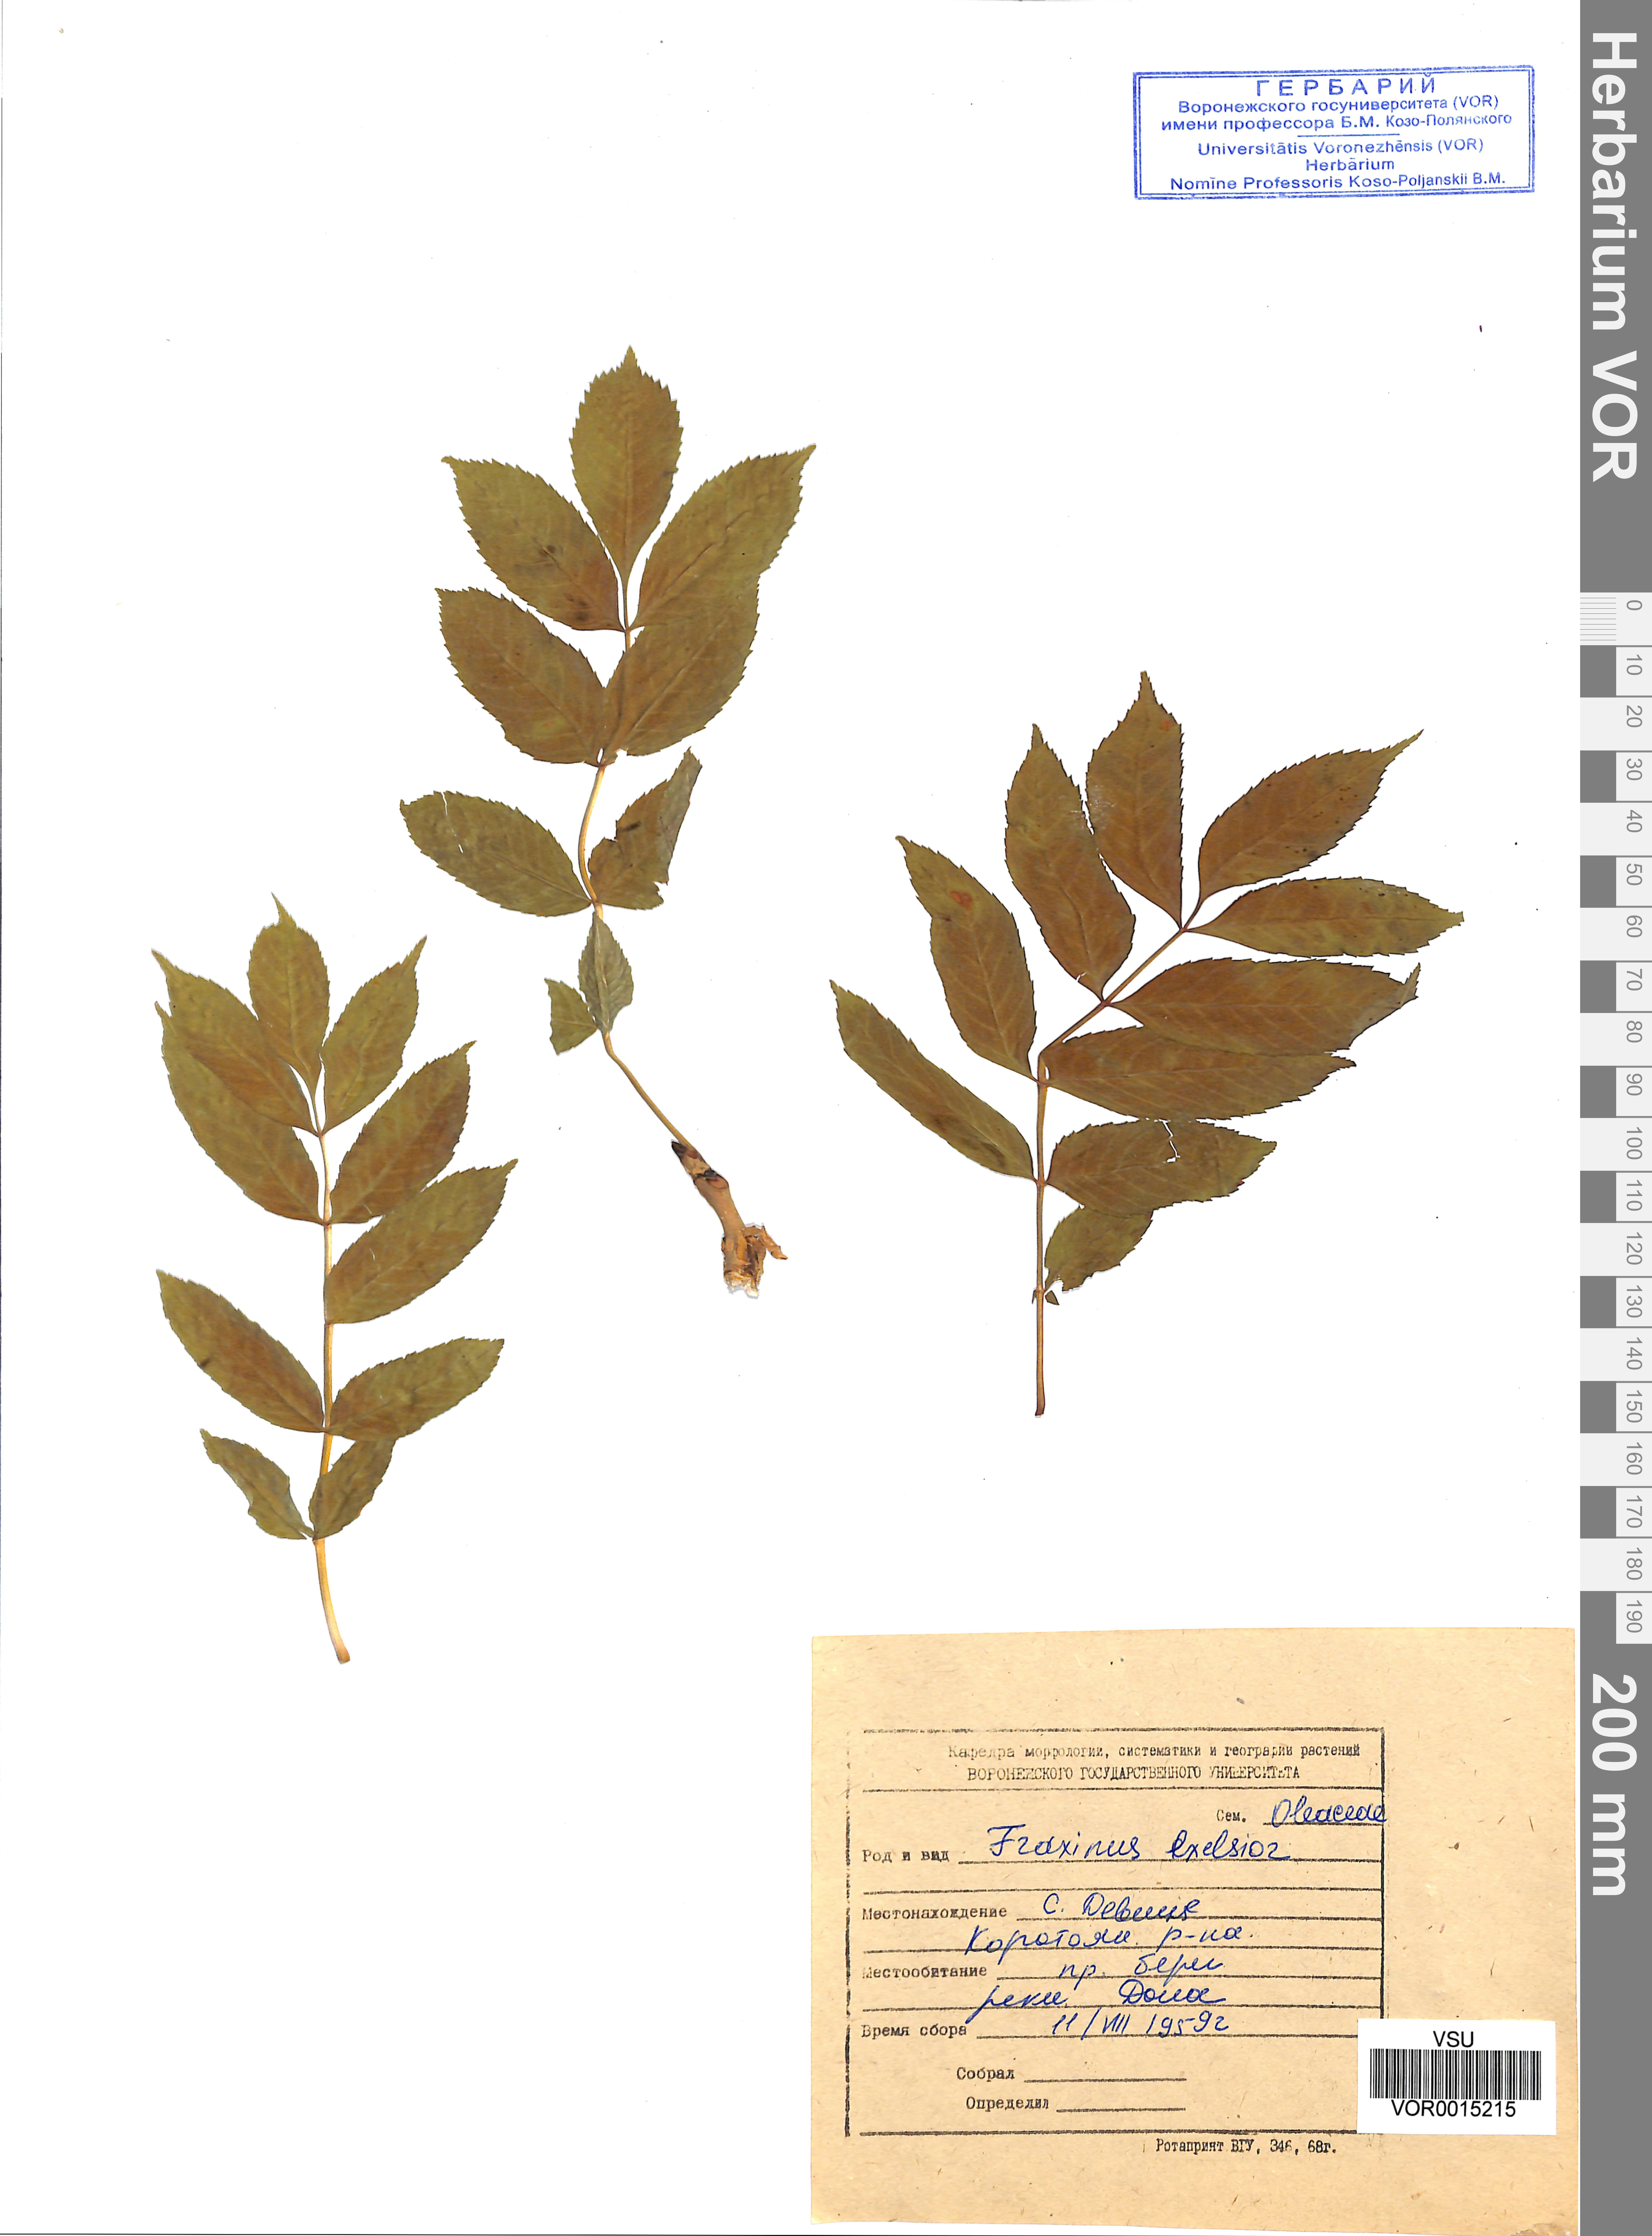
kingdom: Plantae
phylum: Tracheophyta
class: Magnoliopsida
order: Lamiales
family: Oleaceae
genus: Fraxinus
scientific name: Fraxinus excelsior
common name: European ash
